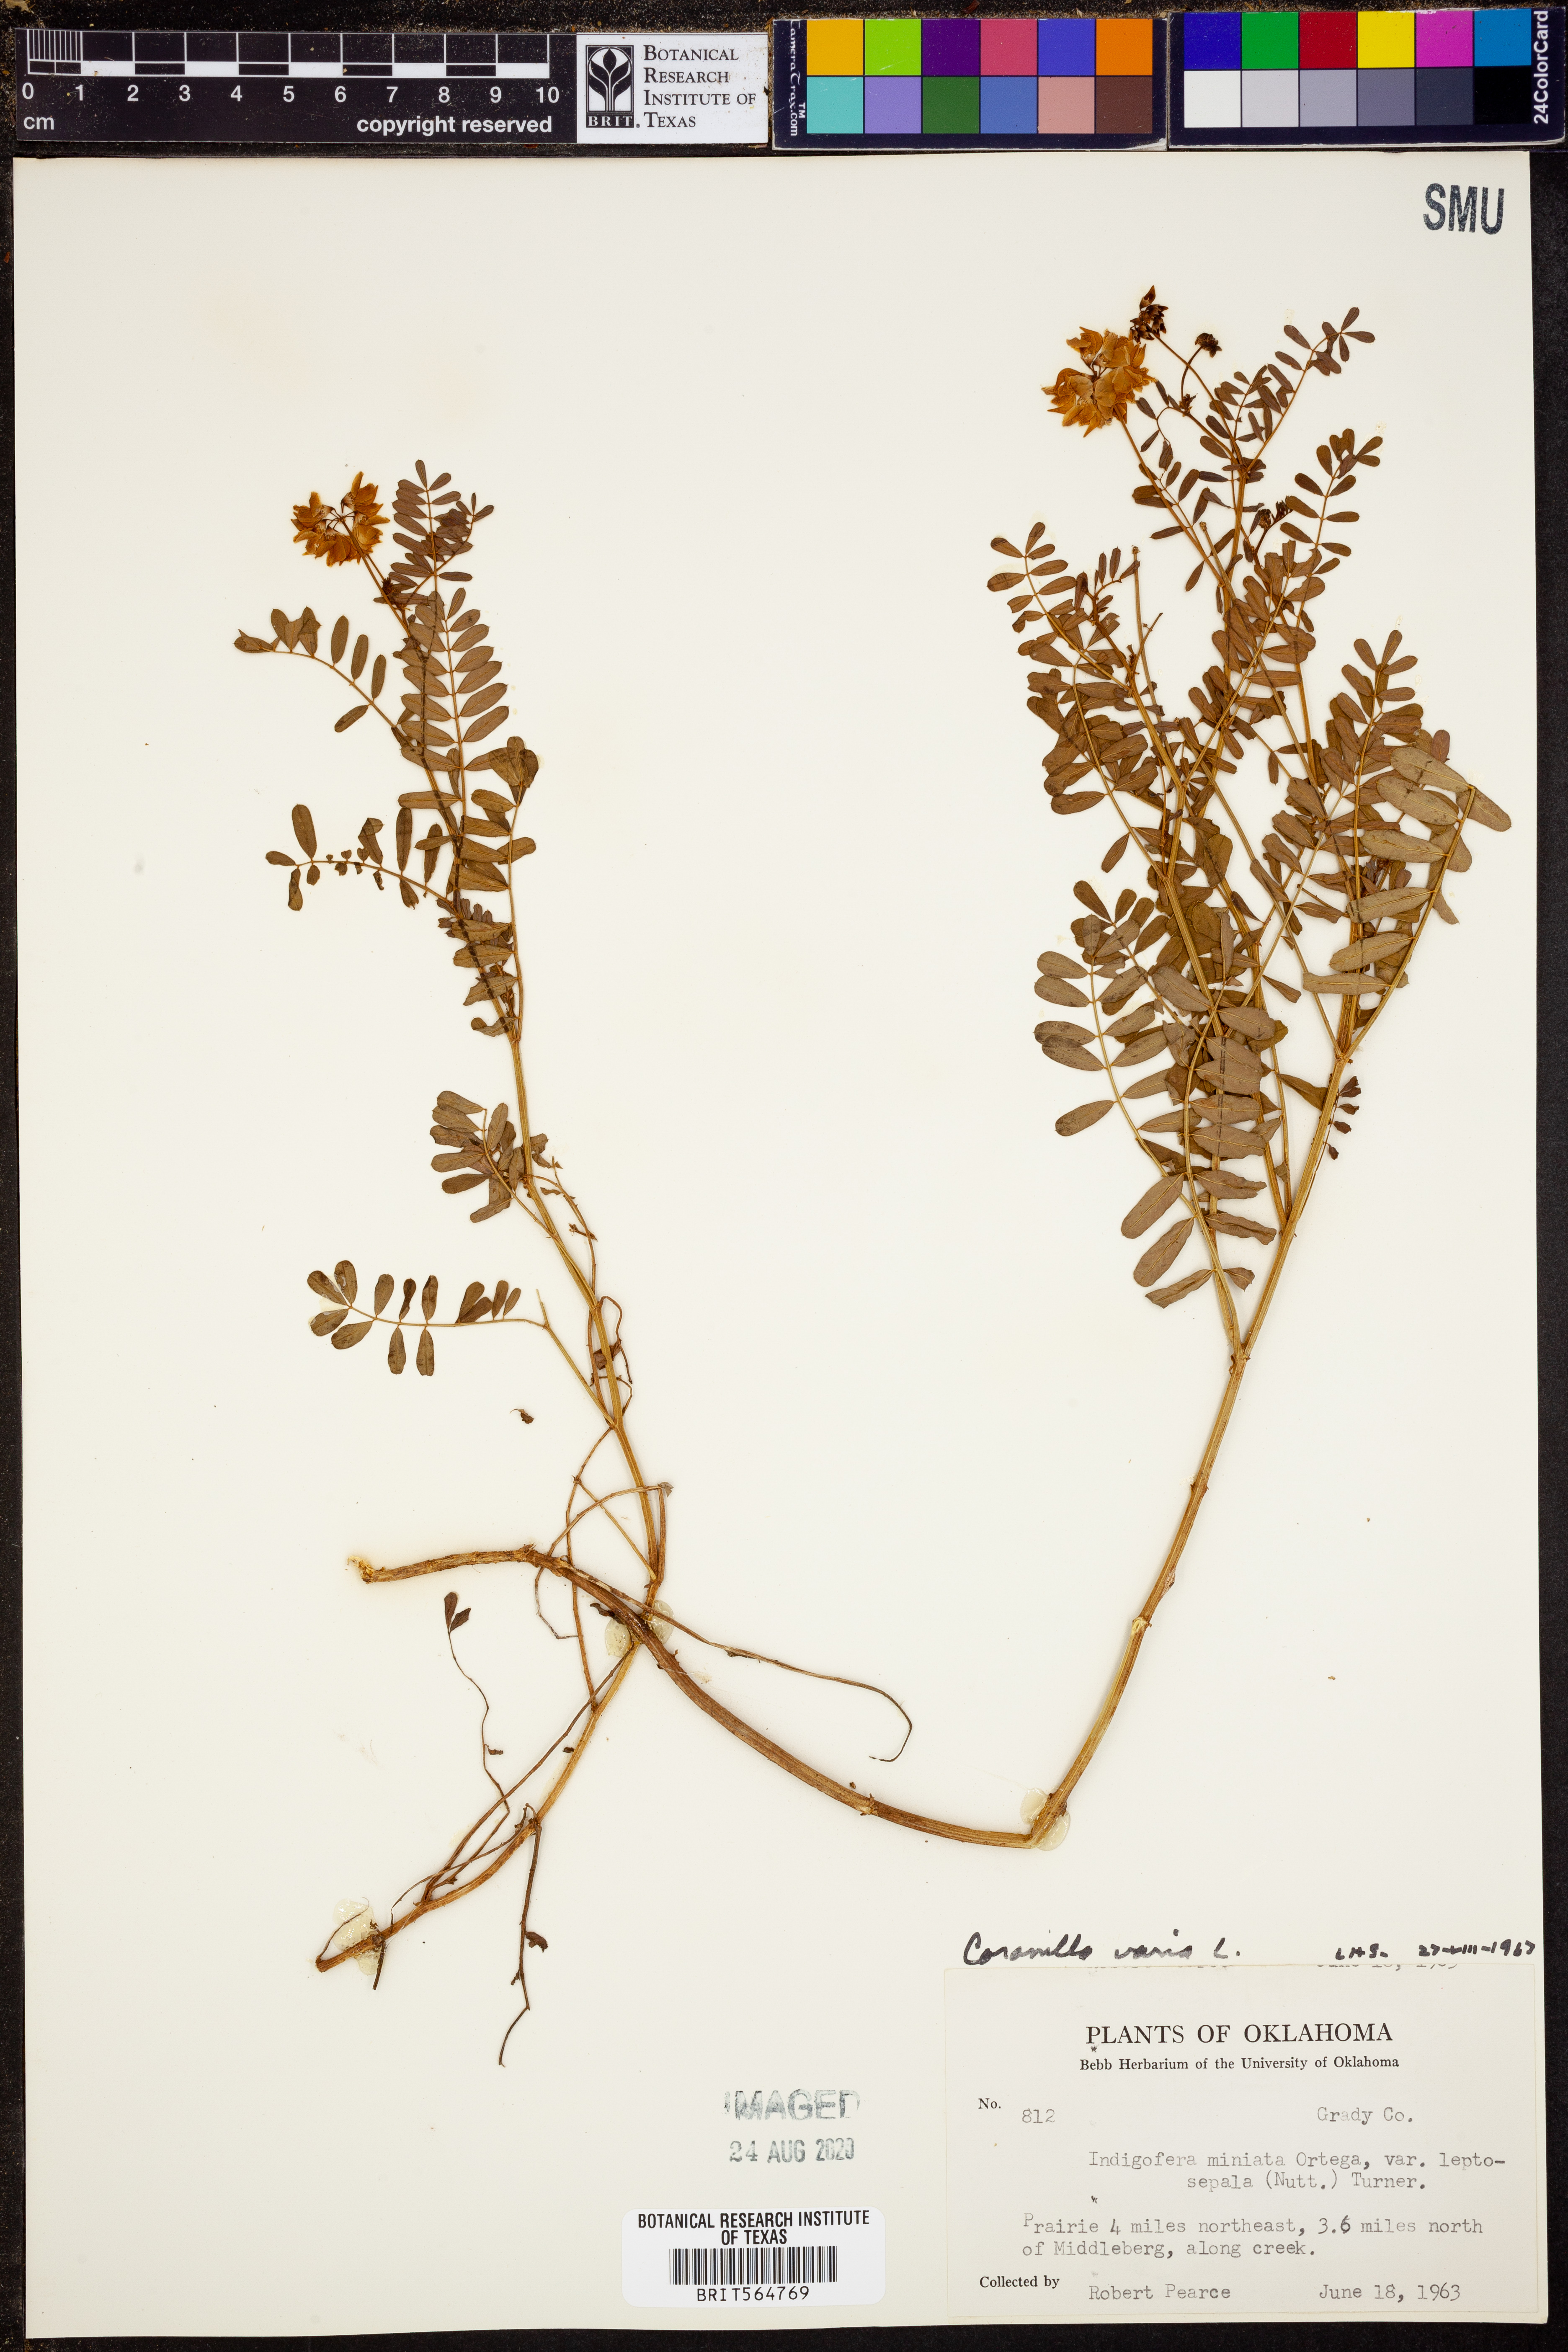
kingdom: Plantae
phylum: Tracheophyta
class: Magnoliopsida
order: Fabales
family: Fabaceae
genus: Coronilla
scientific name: Coronilla varia
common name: Crownvetch
